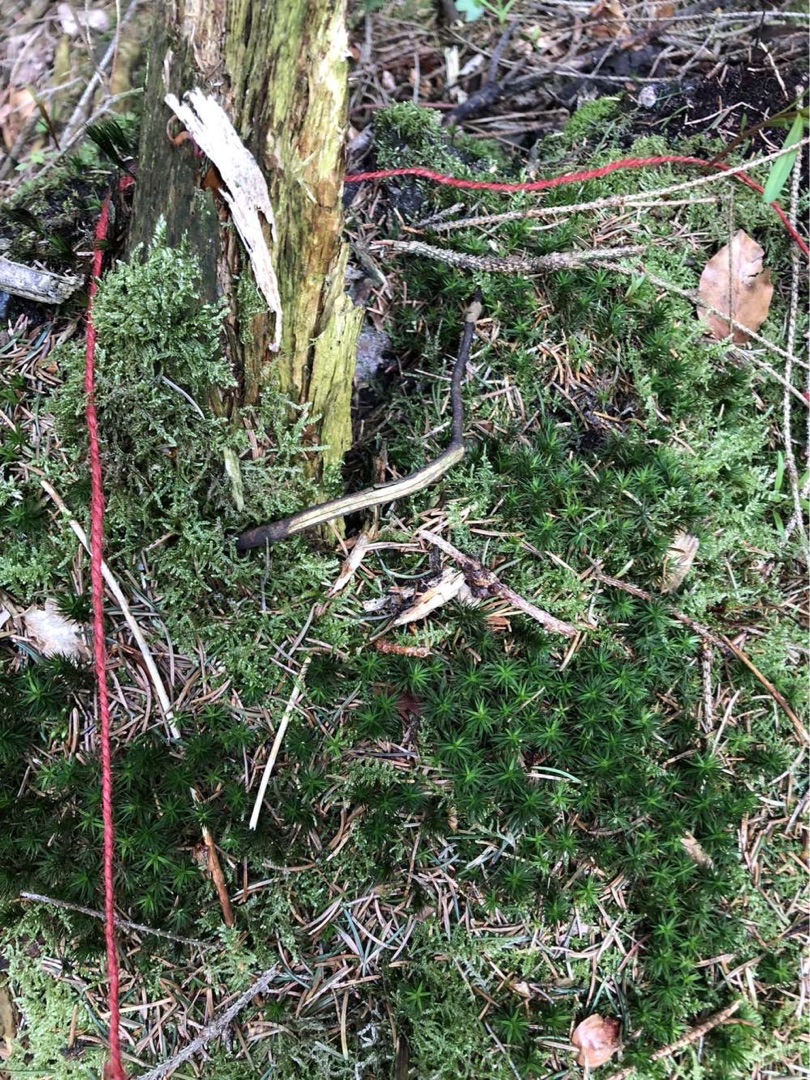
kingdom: Plantae
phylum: Bryophyta
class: Polytrichopsida
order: Polytrichales
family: Polytrichaceae
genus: Polytrichum
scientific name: Polytrichum formosum
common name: Skov-jomfruhår
